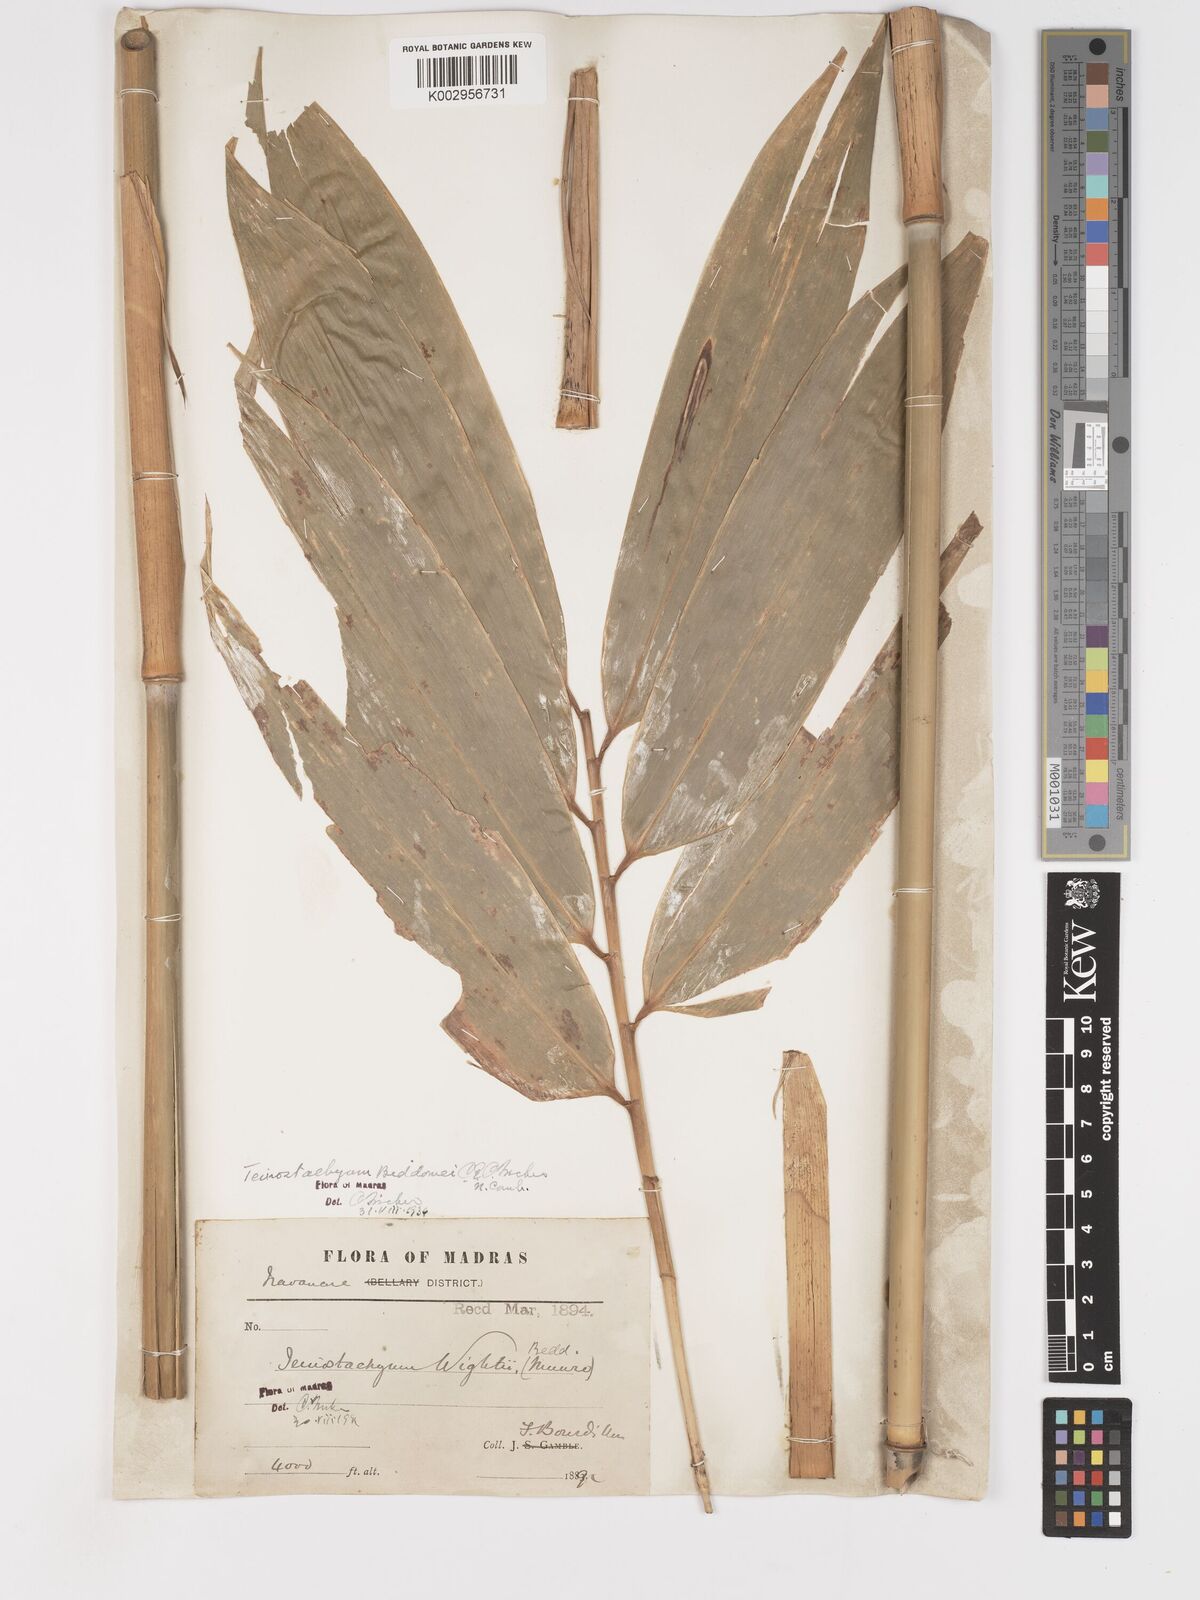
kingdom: Plantae
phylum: Tracheophyta
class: Liliopsida
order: Poales
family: Poaceae
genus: Schizostachyum
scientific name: Schizostachyum beddomei
